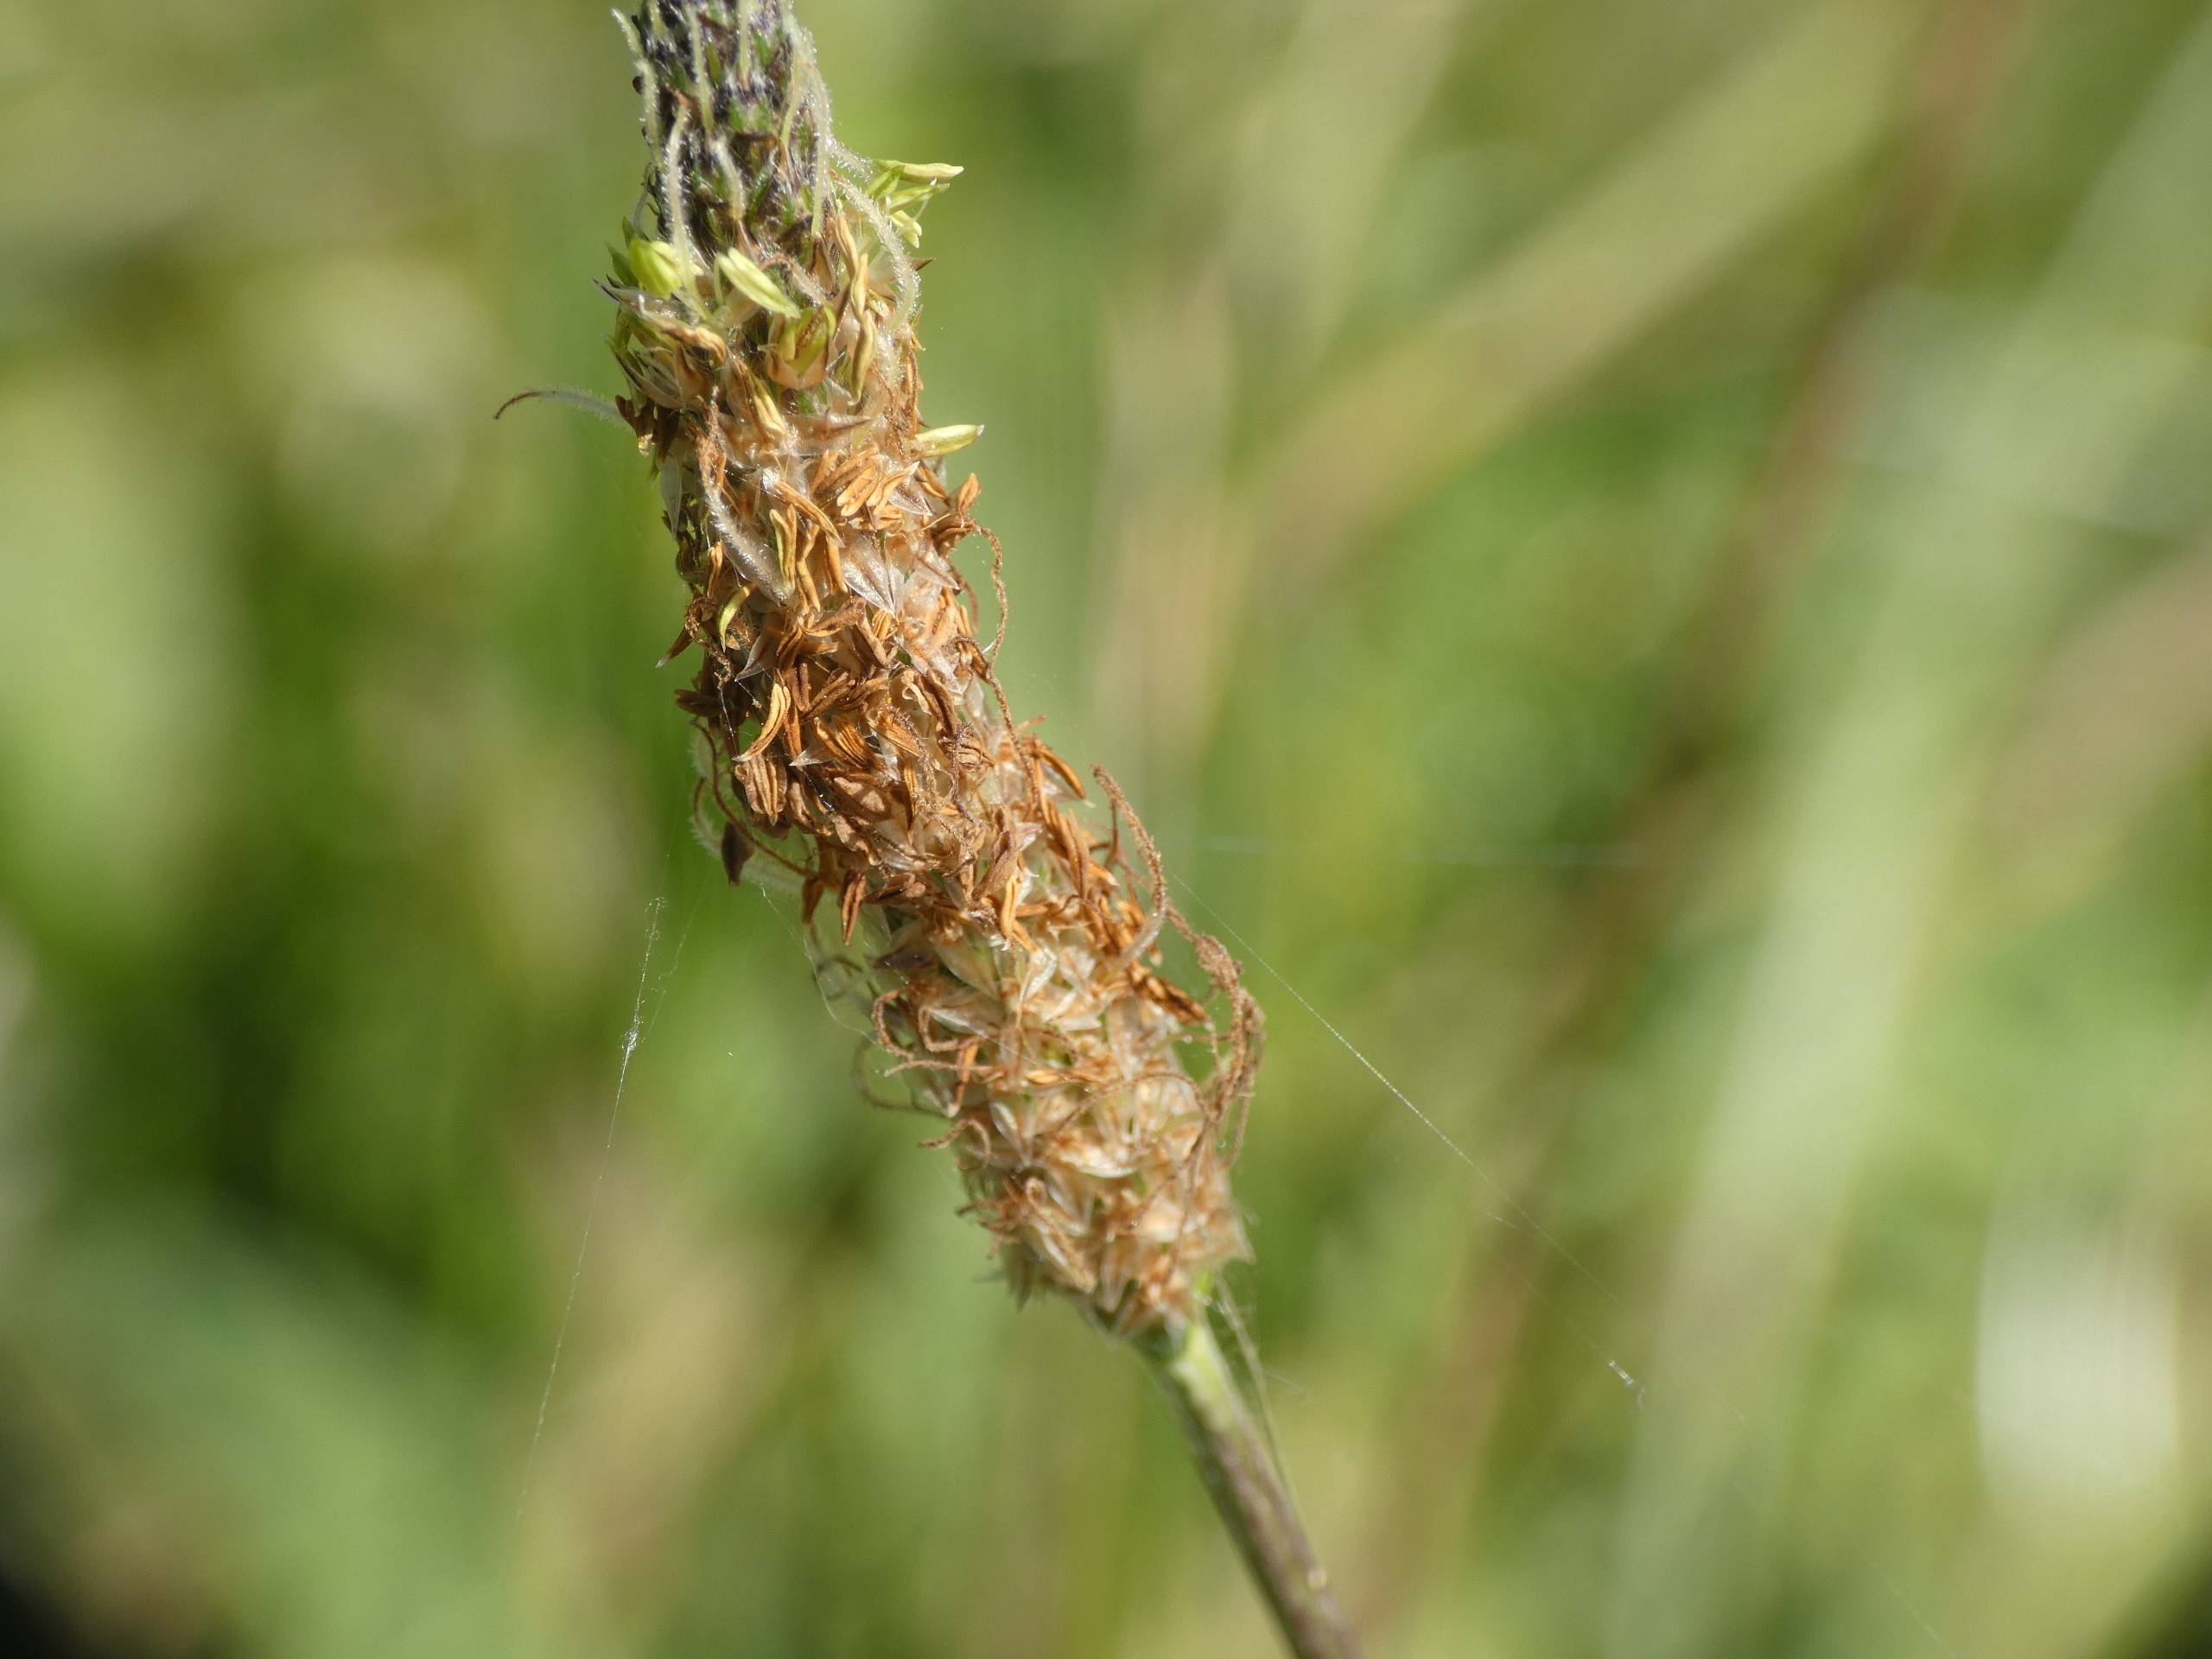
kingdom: Plantae
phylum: Tracheophyta
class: Magnoliopsida
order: Lamiales
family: Plantaginaceae
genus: Plantago
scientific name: Plantago lanceolata
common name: Lancet-vejbred
